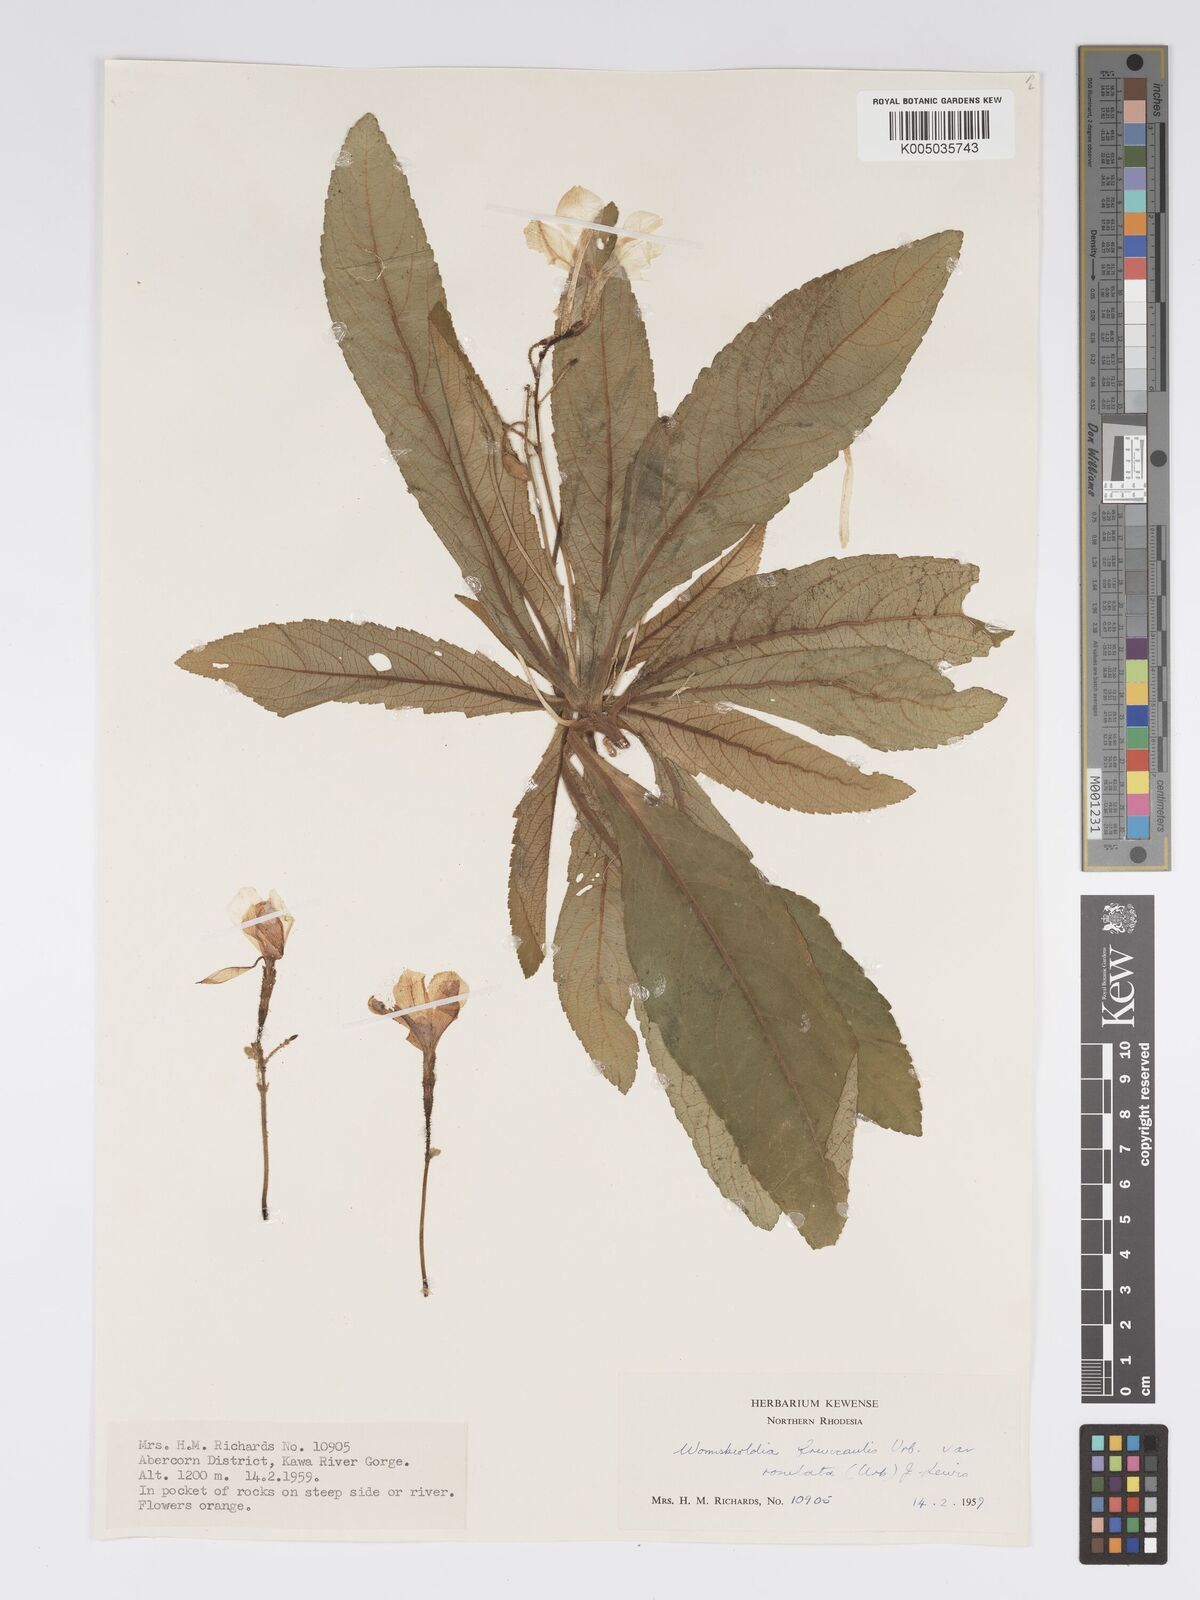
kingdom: Plantae
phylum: Tracheophyta
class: Magnoliopsida
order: Malpighiales
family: Turneraceae
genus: Tricliceras
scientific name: Tricliceras brevicaule
